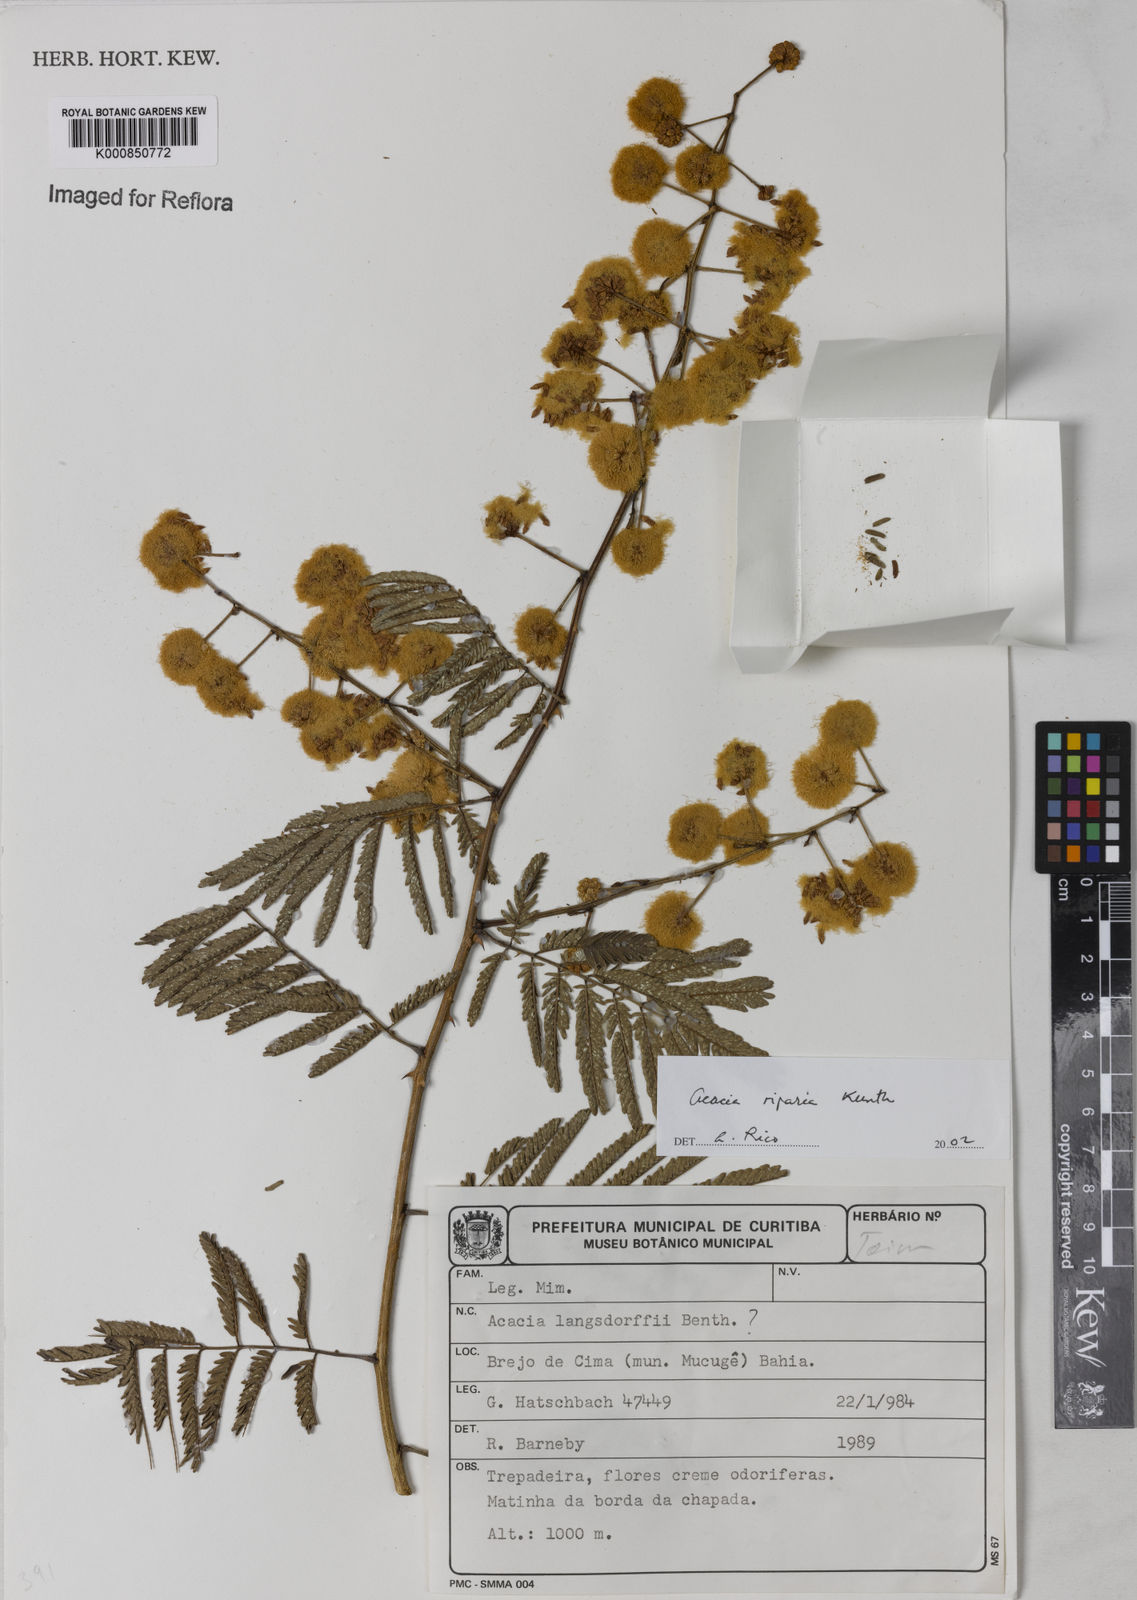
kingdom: Plantae
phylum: Tracheophyta
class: Magnoliopsida
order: Fabales
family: Fabaceae
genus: Senegalia
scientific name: Senegalia riparia
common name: Catch-and-keep
